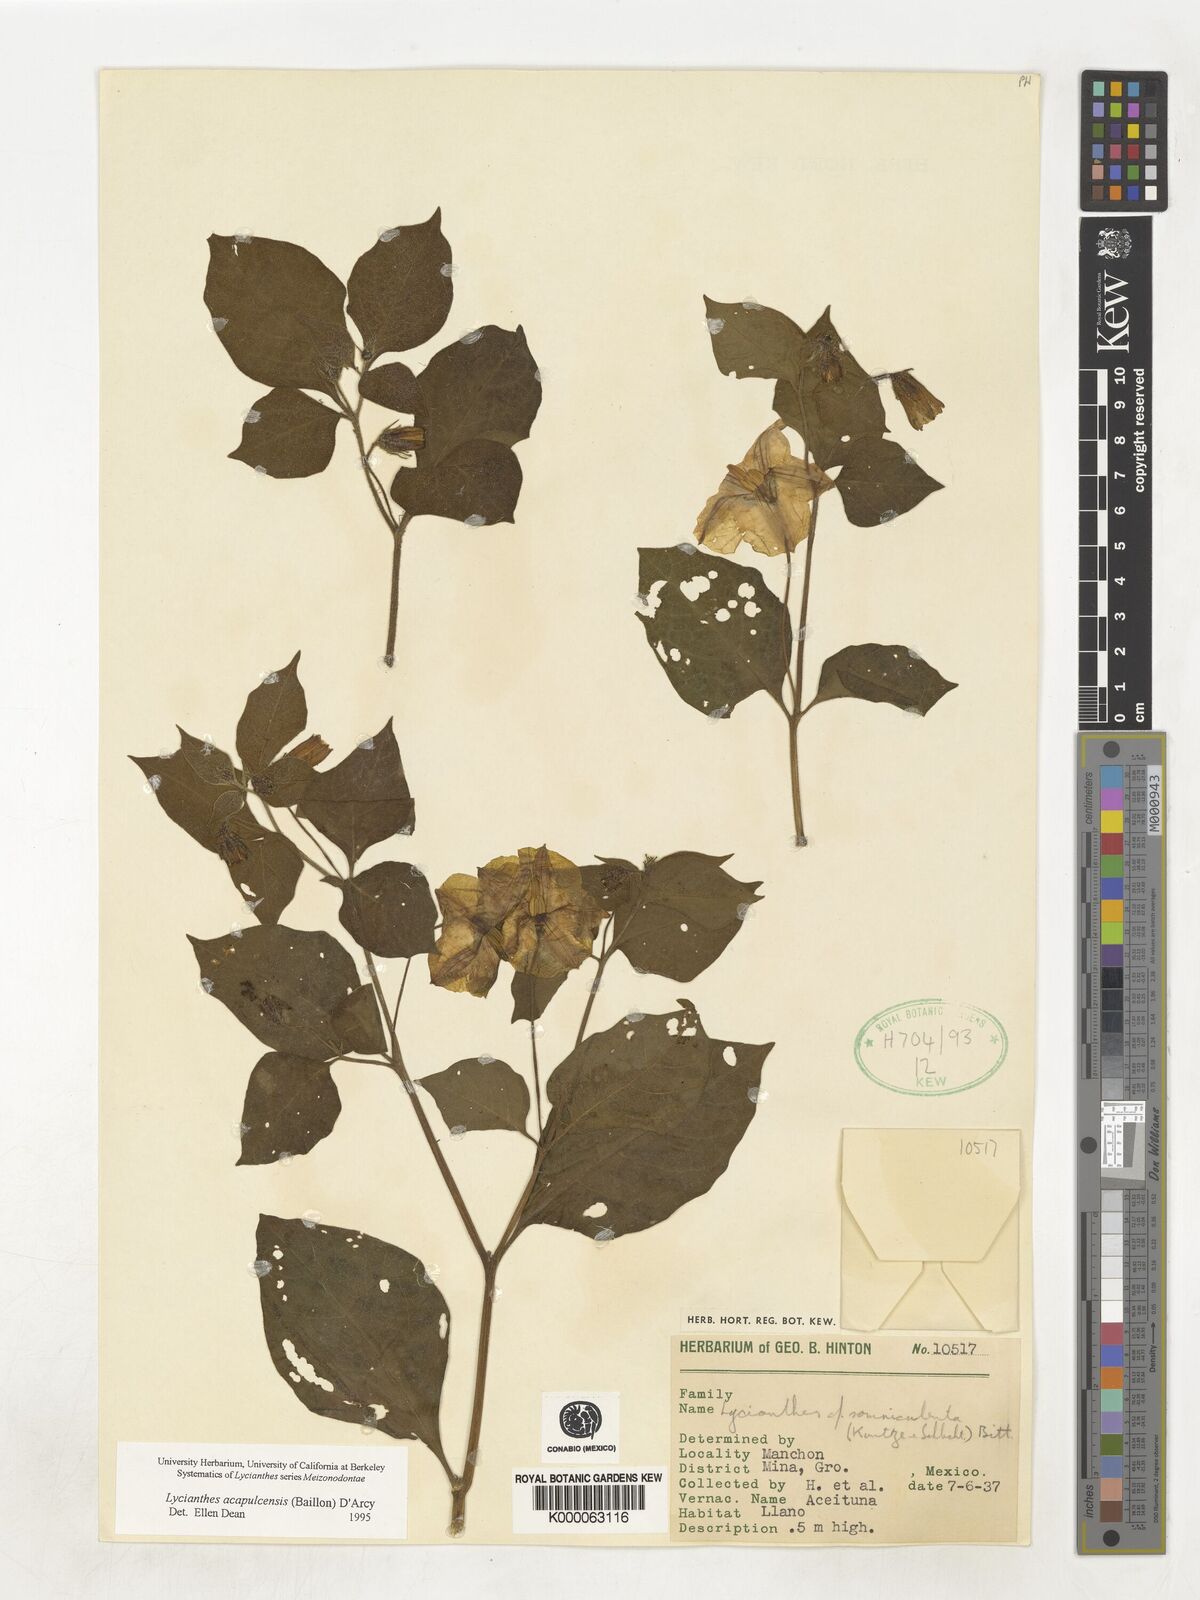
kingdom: Plantae
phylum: Tracheophyta
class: Magnoliopsida
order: Solanales
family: Solanaceae
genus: Lycianthes
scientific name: Lycianthes acapulcensis
